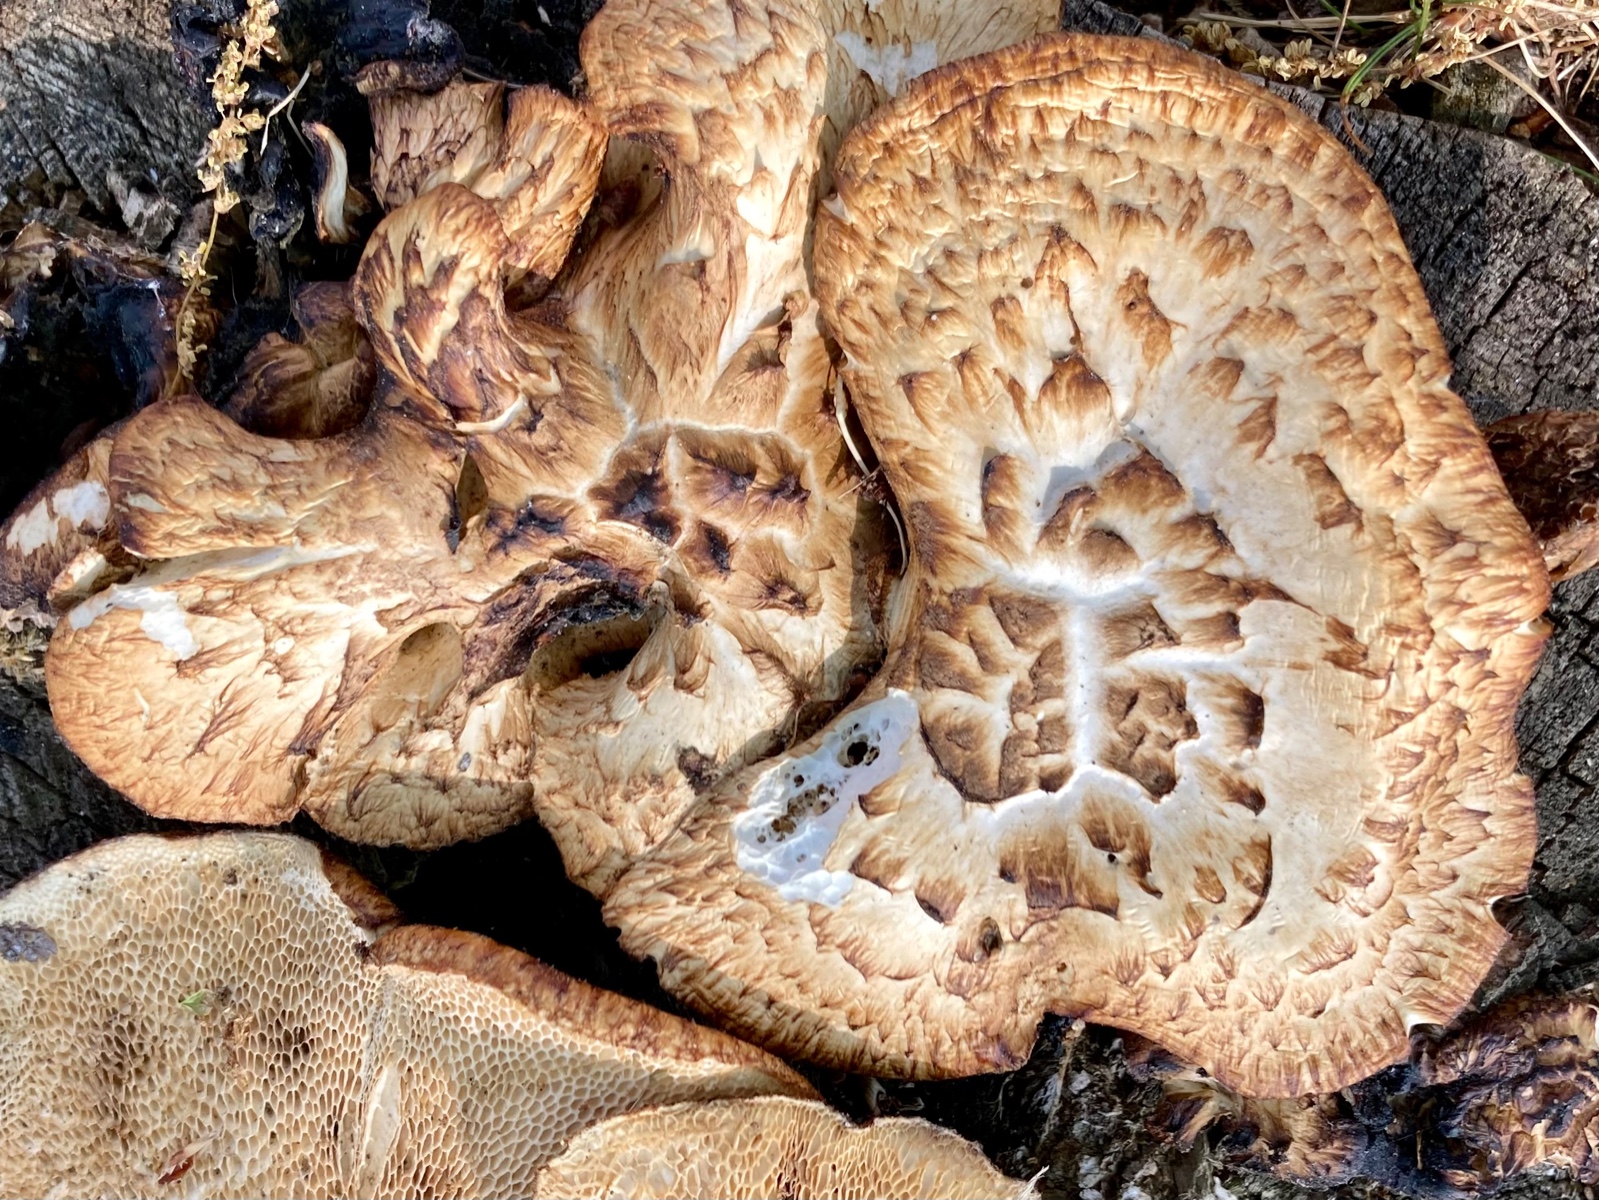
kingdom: Fungi
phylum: Basidiomycota
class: Agaricomycetes
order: Polyporales
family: Polyporaceae
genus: Cerioporus
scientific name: Cerioporus squamosus
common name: skællet stilkporesvamp
